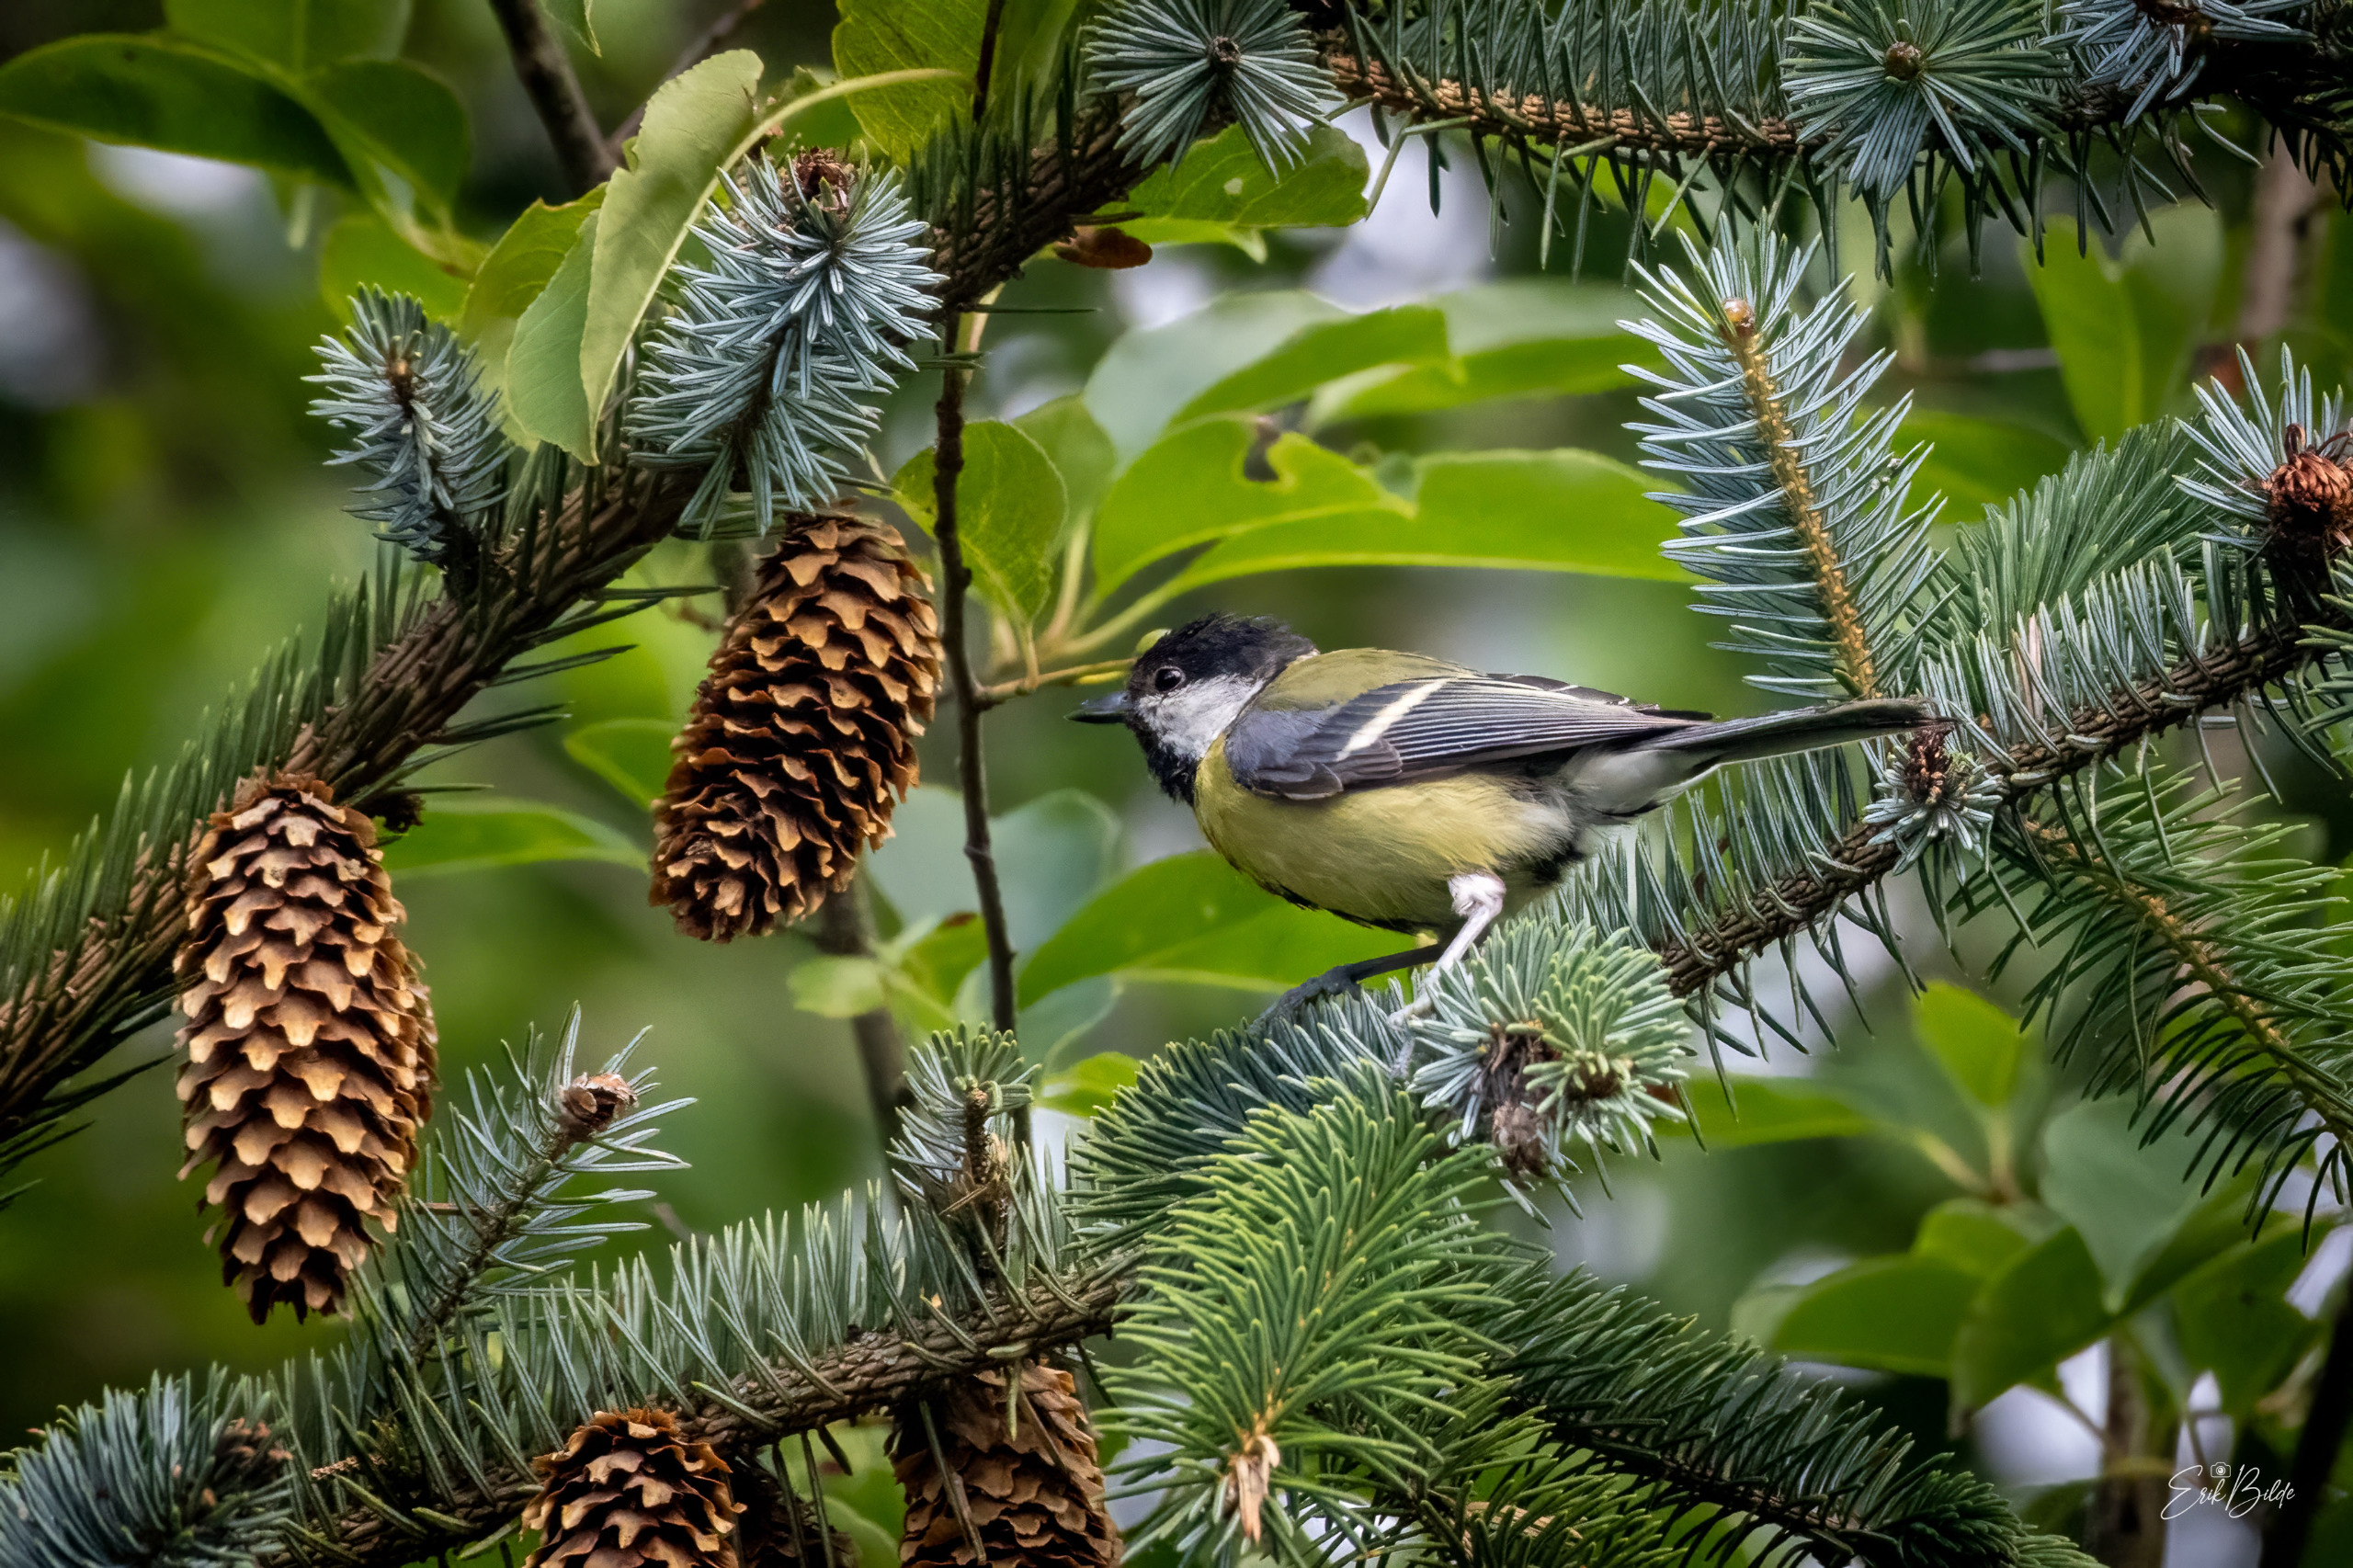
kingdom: Animalia
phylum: Chordata
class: Aves
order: Passeriformes
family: Paridae
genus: Parus
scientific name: Parus major
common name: Musvit
